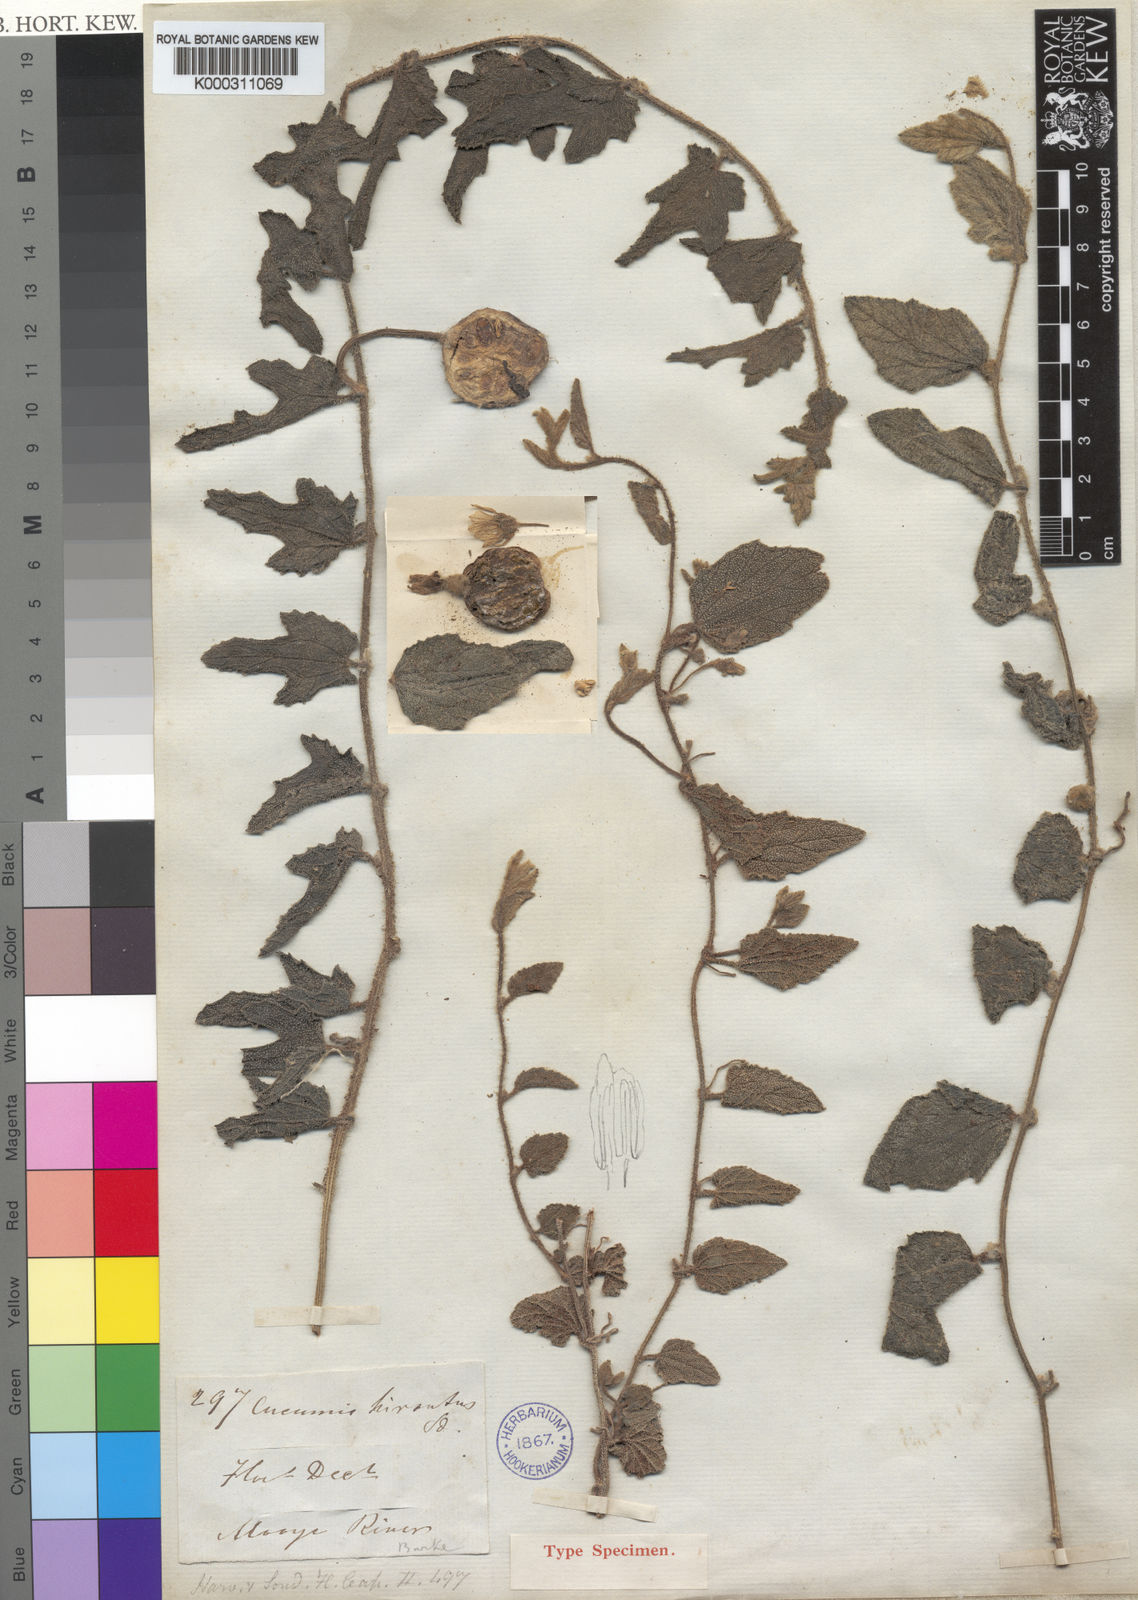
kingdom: Plantae
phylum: Tracheophyta
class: Magnoliopsida
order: Cucurbitales
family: Cucurbitaceae
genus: Cucumis
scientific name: Cucumis hirsutus
